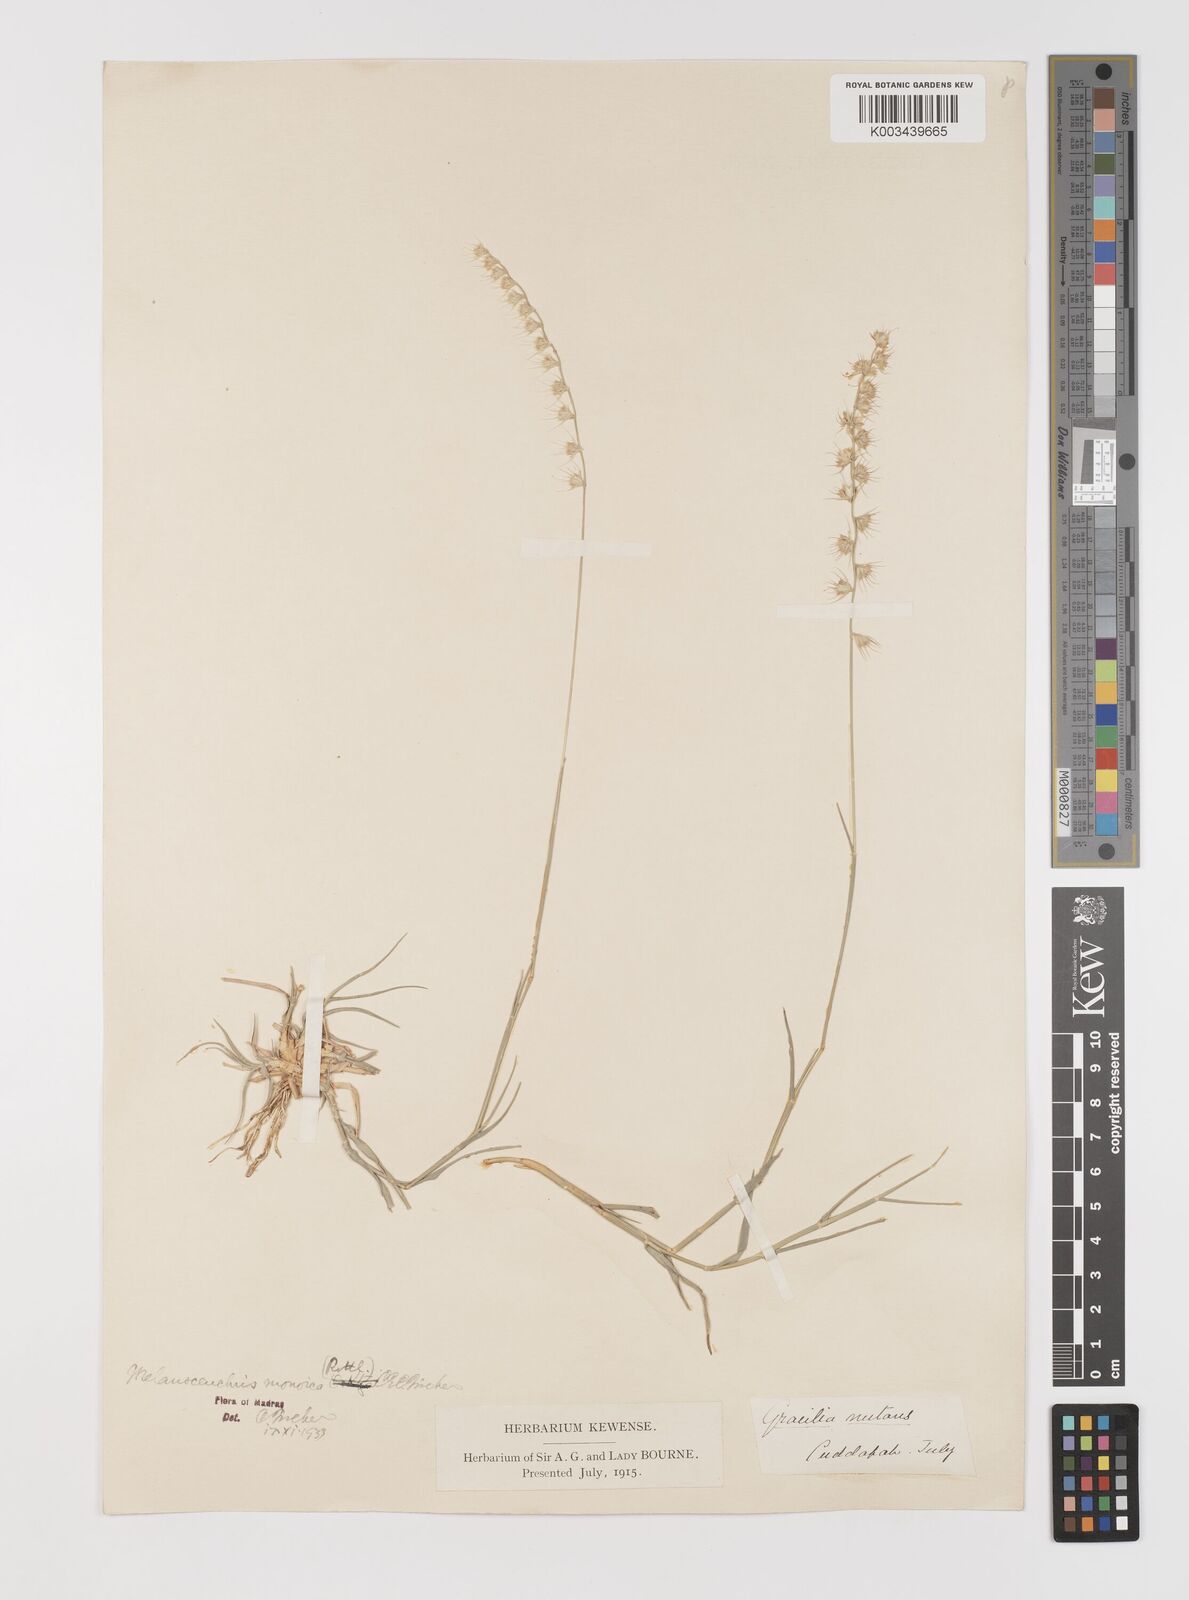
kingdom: Plantae
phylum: Tracheophyta
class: Liliopsida
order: Poales
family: Poaceae
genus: Melanocenchris
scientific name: Melanocenchris rothiana
